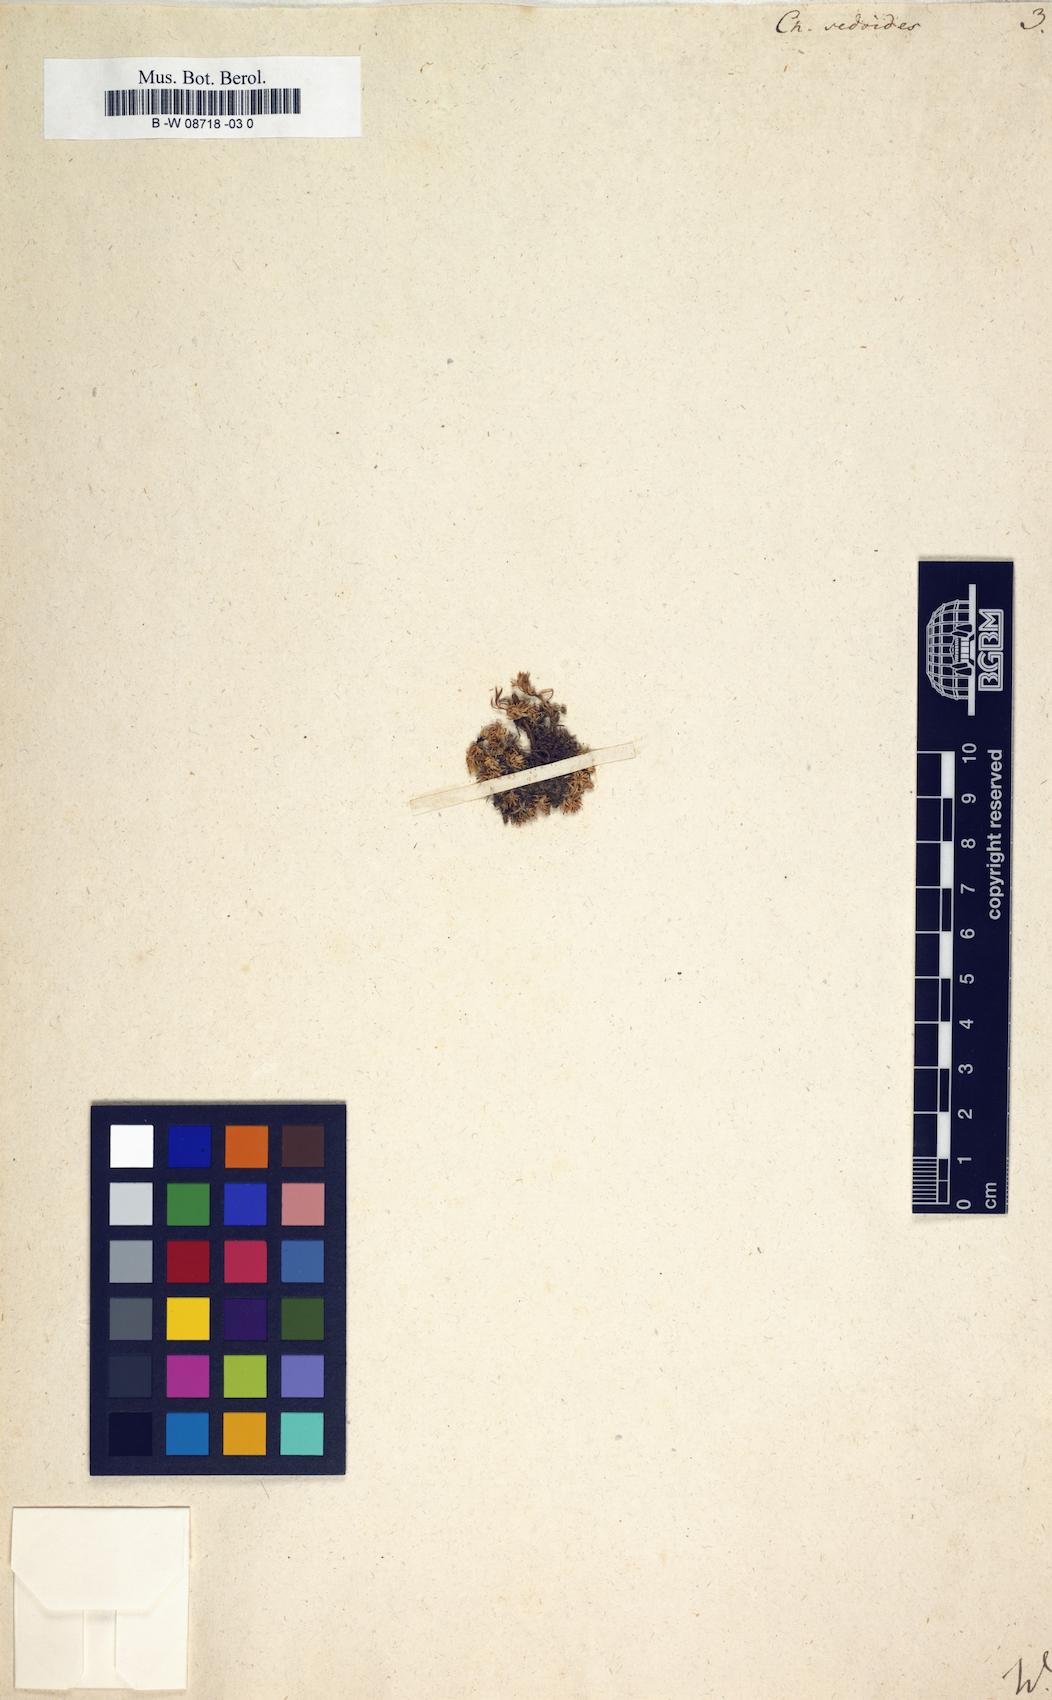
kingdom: Plantae
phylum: Tracheophyta
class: Magnoliopsida
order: Caryophyllales
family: Caryophyllaceae
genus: Cherleria
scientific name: Cherleria sedoides
